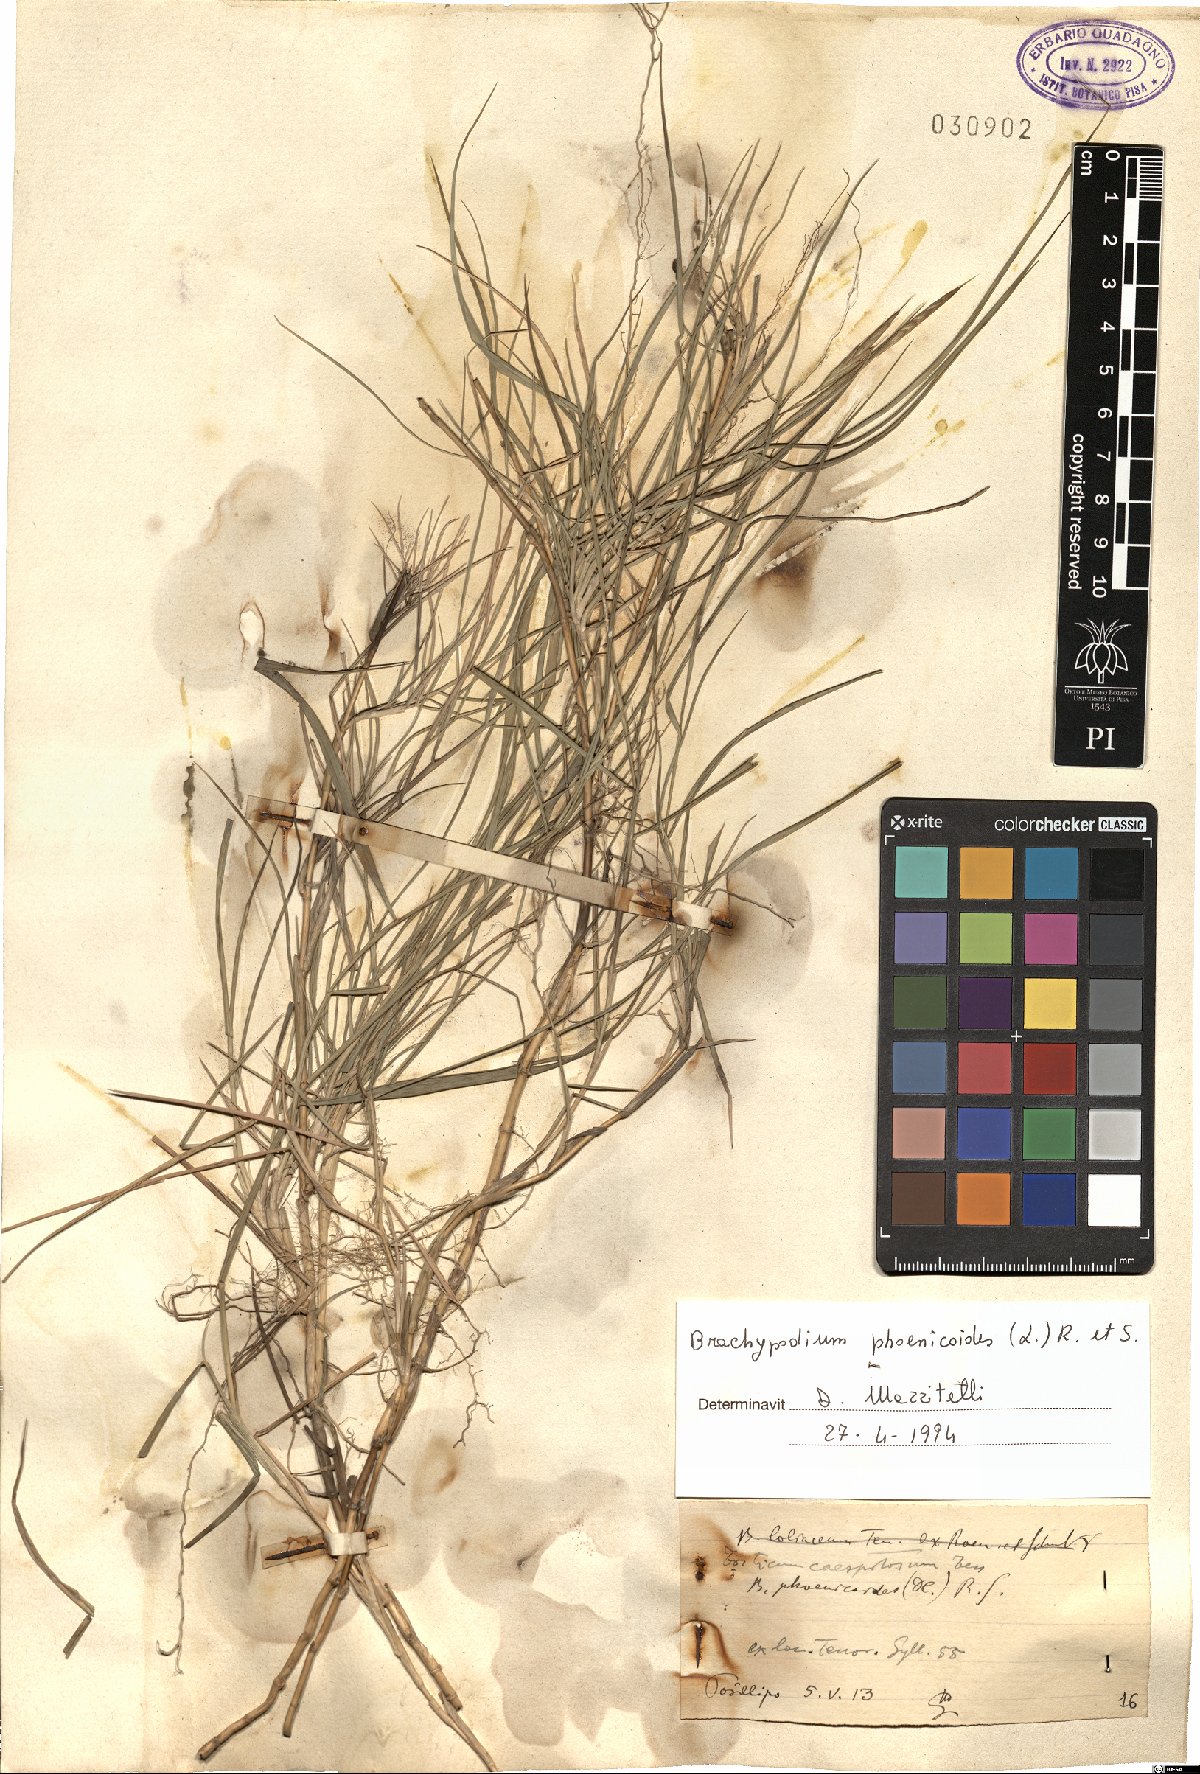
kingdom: Plantae
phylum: Tracheophyta
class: Liliopsida
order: Poales
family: Poaceae
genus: Brachypodium
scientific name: Brachypodium phoenicoides
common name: Thinleaf false brome
